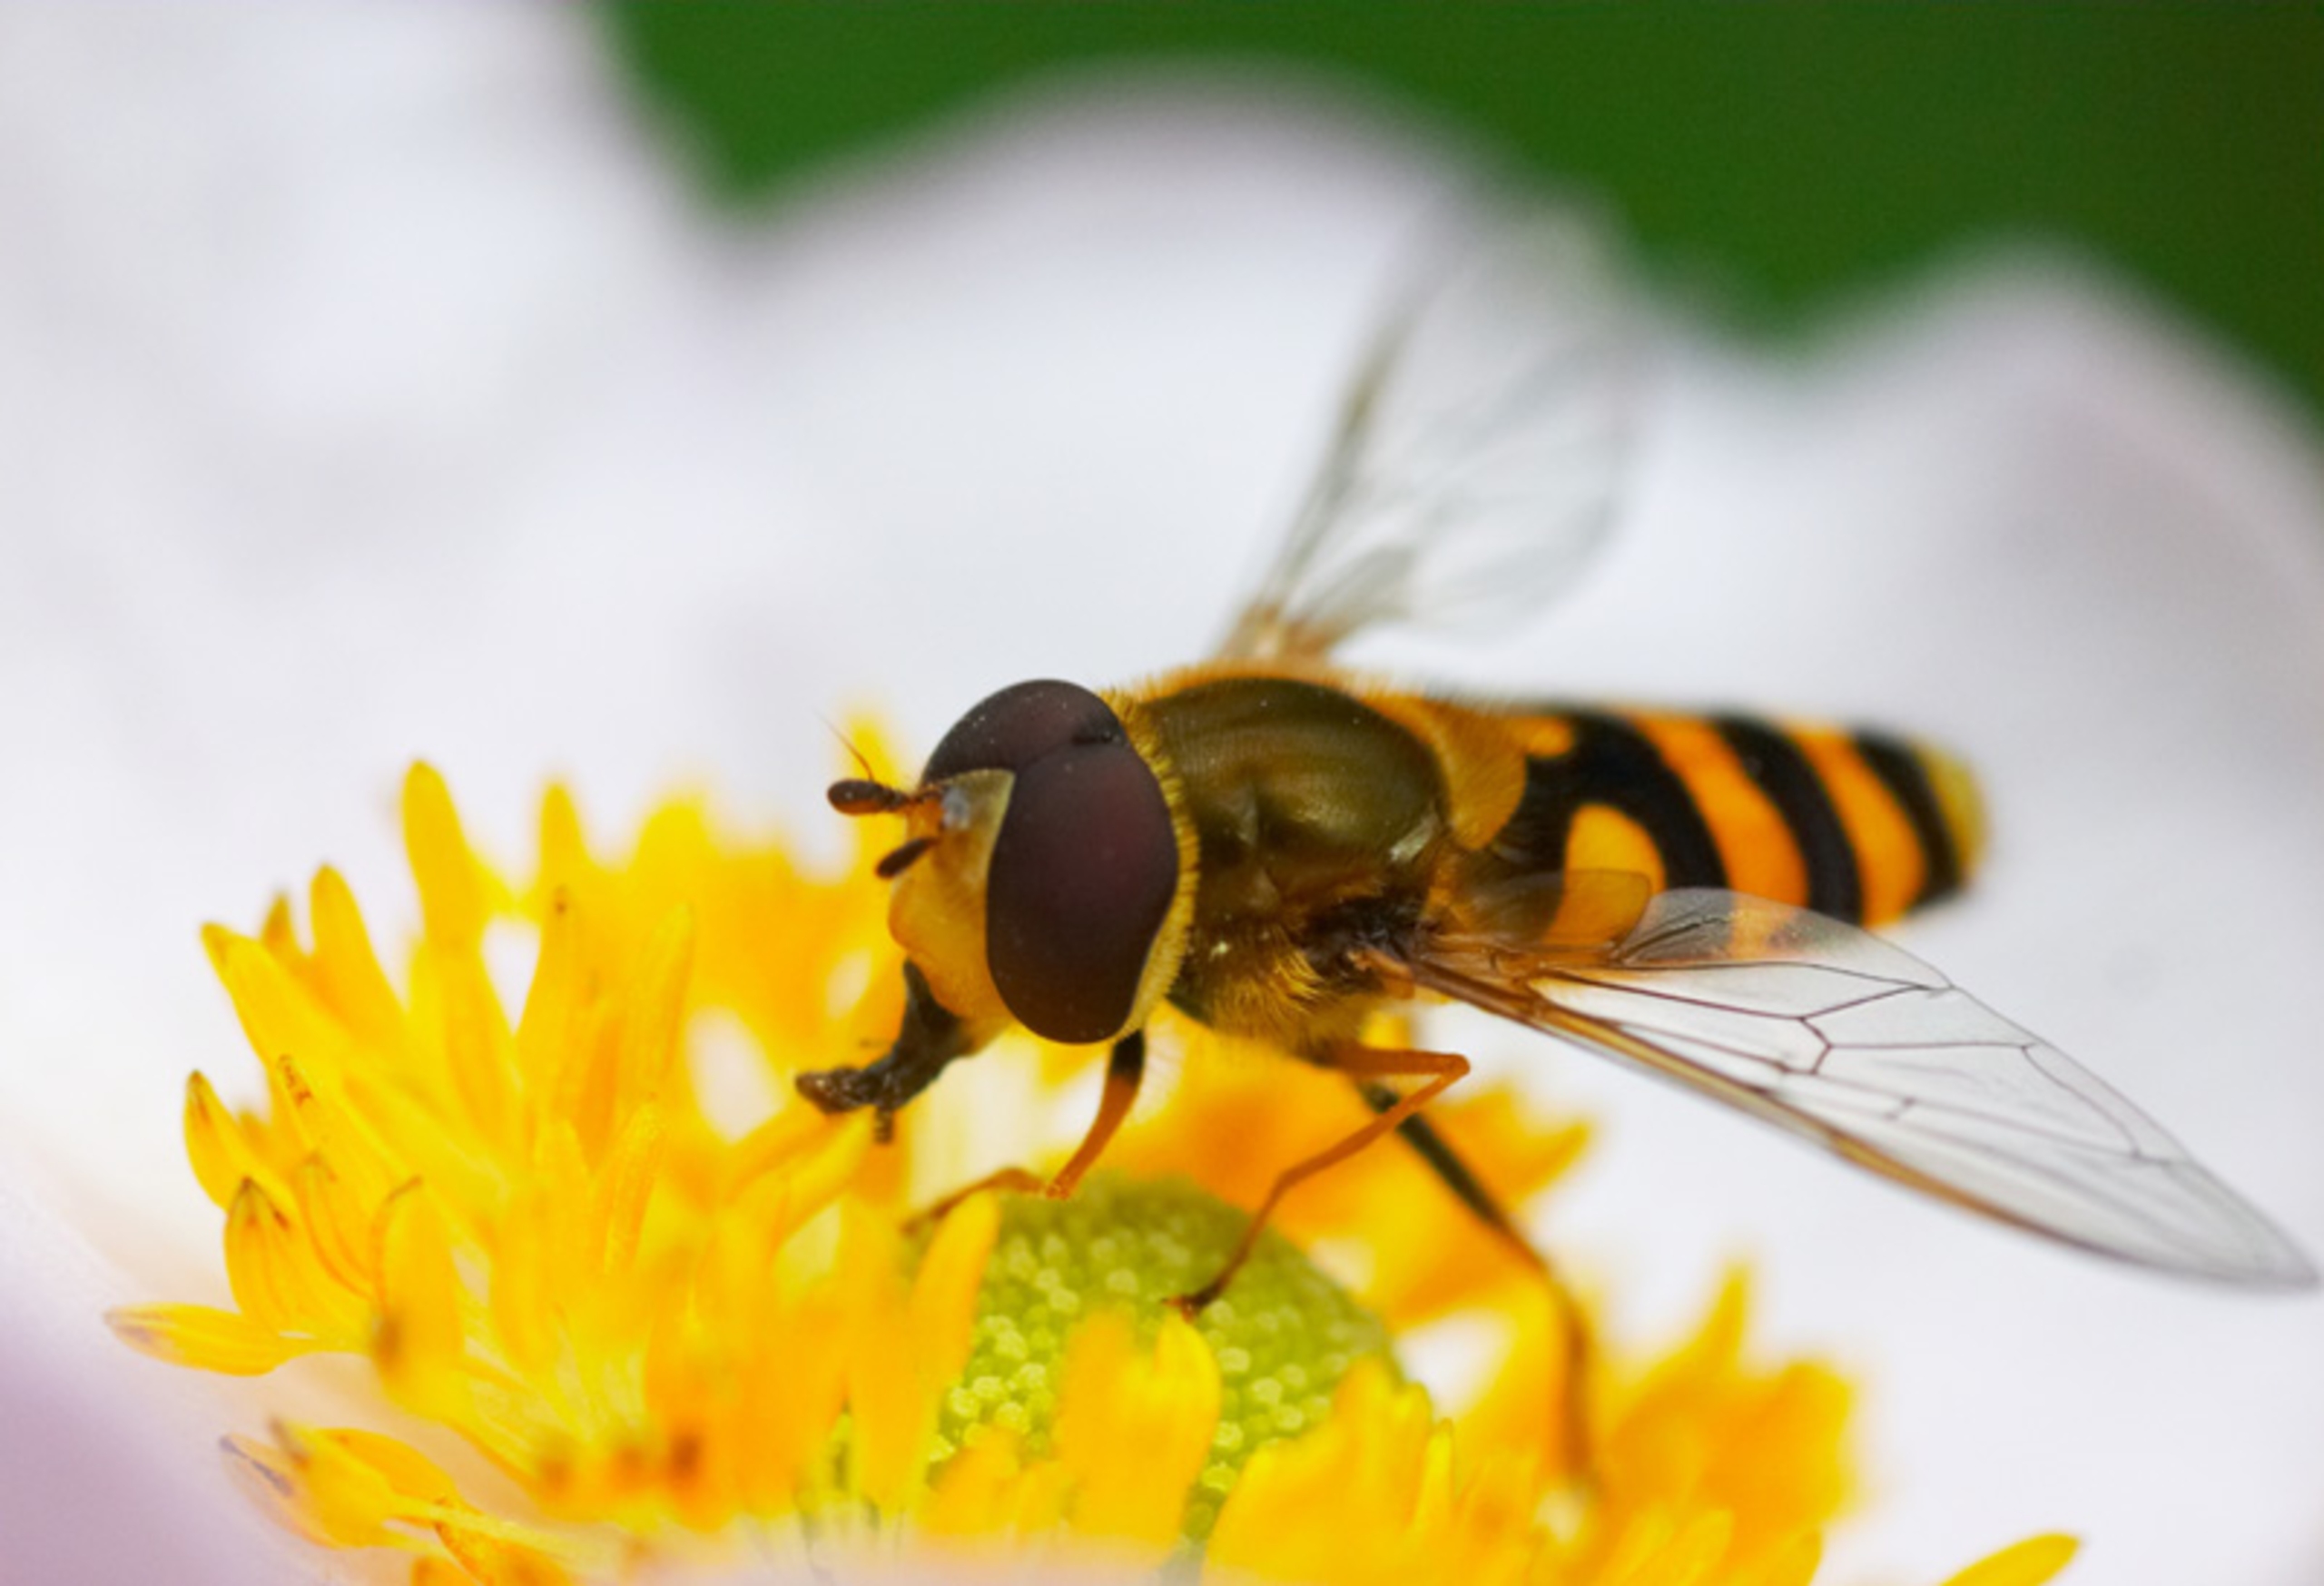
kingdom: Animalia
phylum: Arthropoda
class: Insecta
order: Diptera
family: Syrphidae
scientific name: Syrphidae
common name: Svirrefluer
